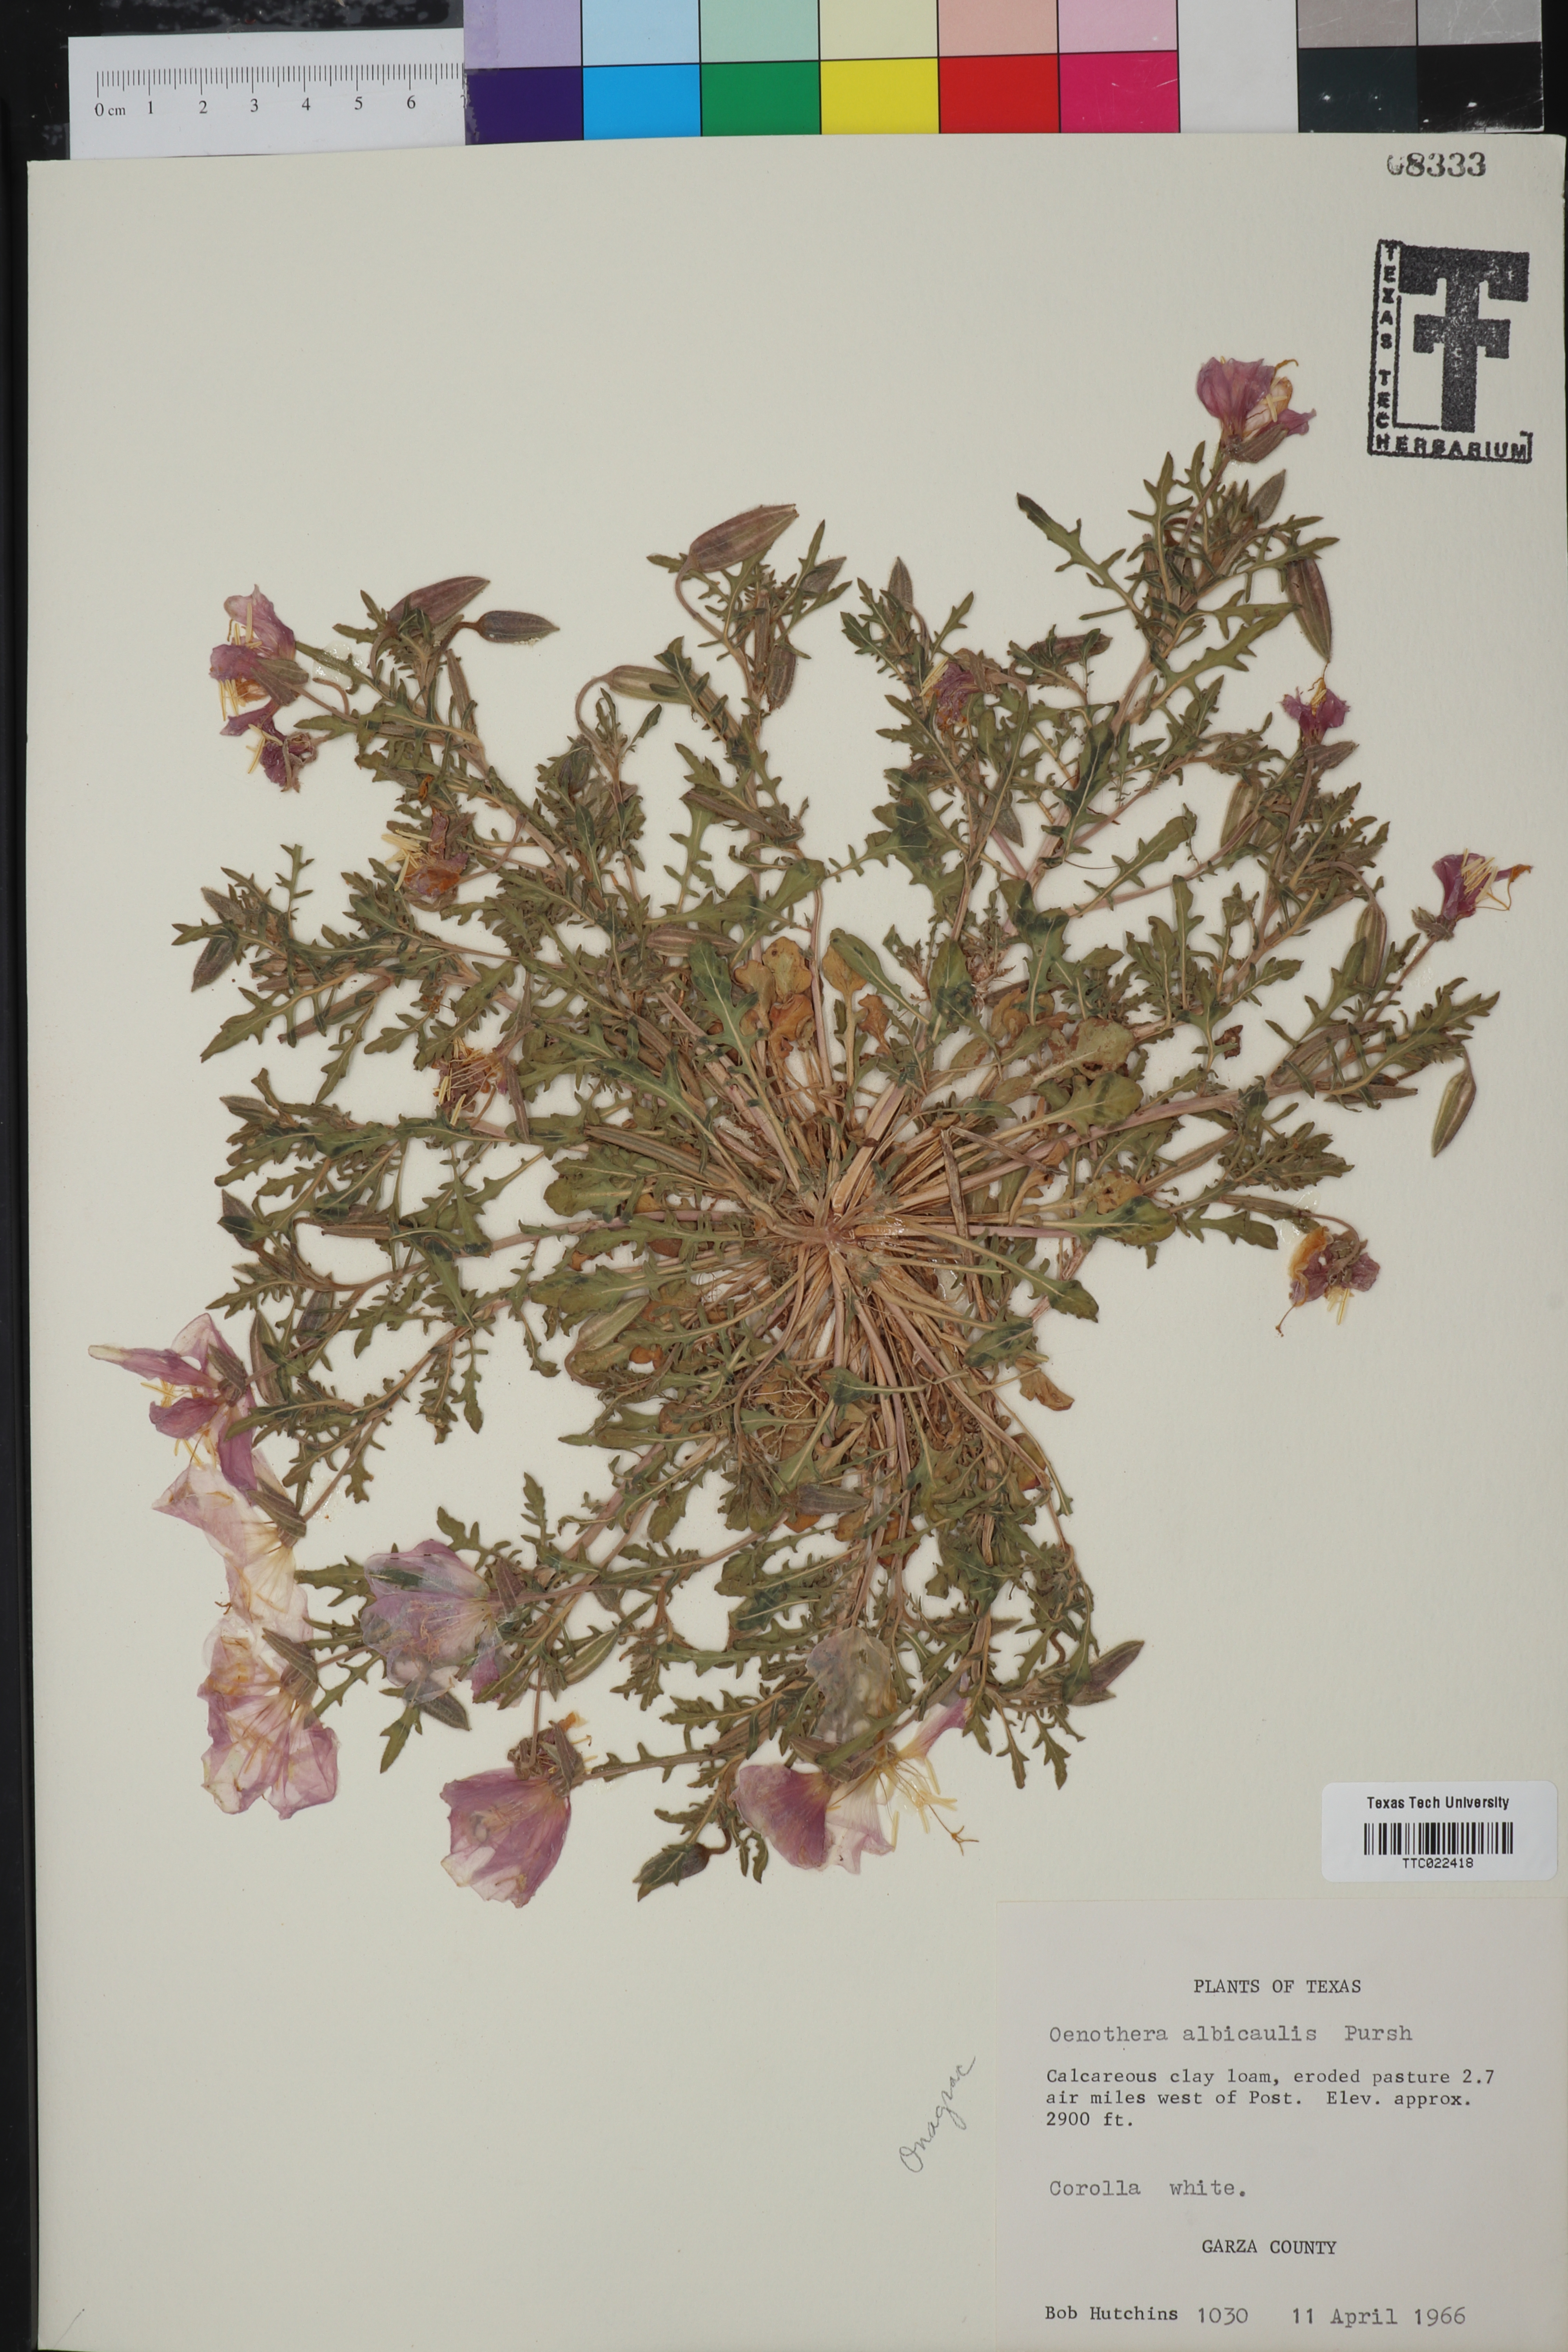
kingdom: Plantae
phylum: Tracheophyta
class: Magnoliopsida
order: Myrtales
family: Onagraceae
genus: Oenothera
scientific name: Oenothera albicaulis
